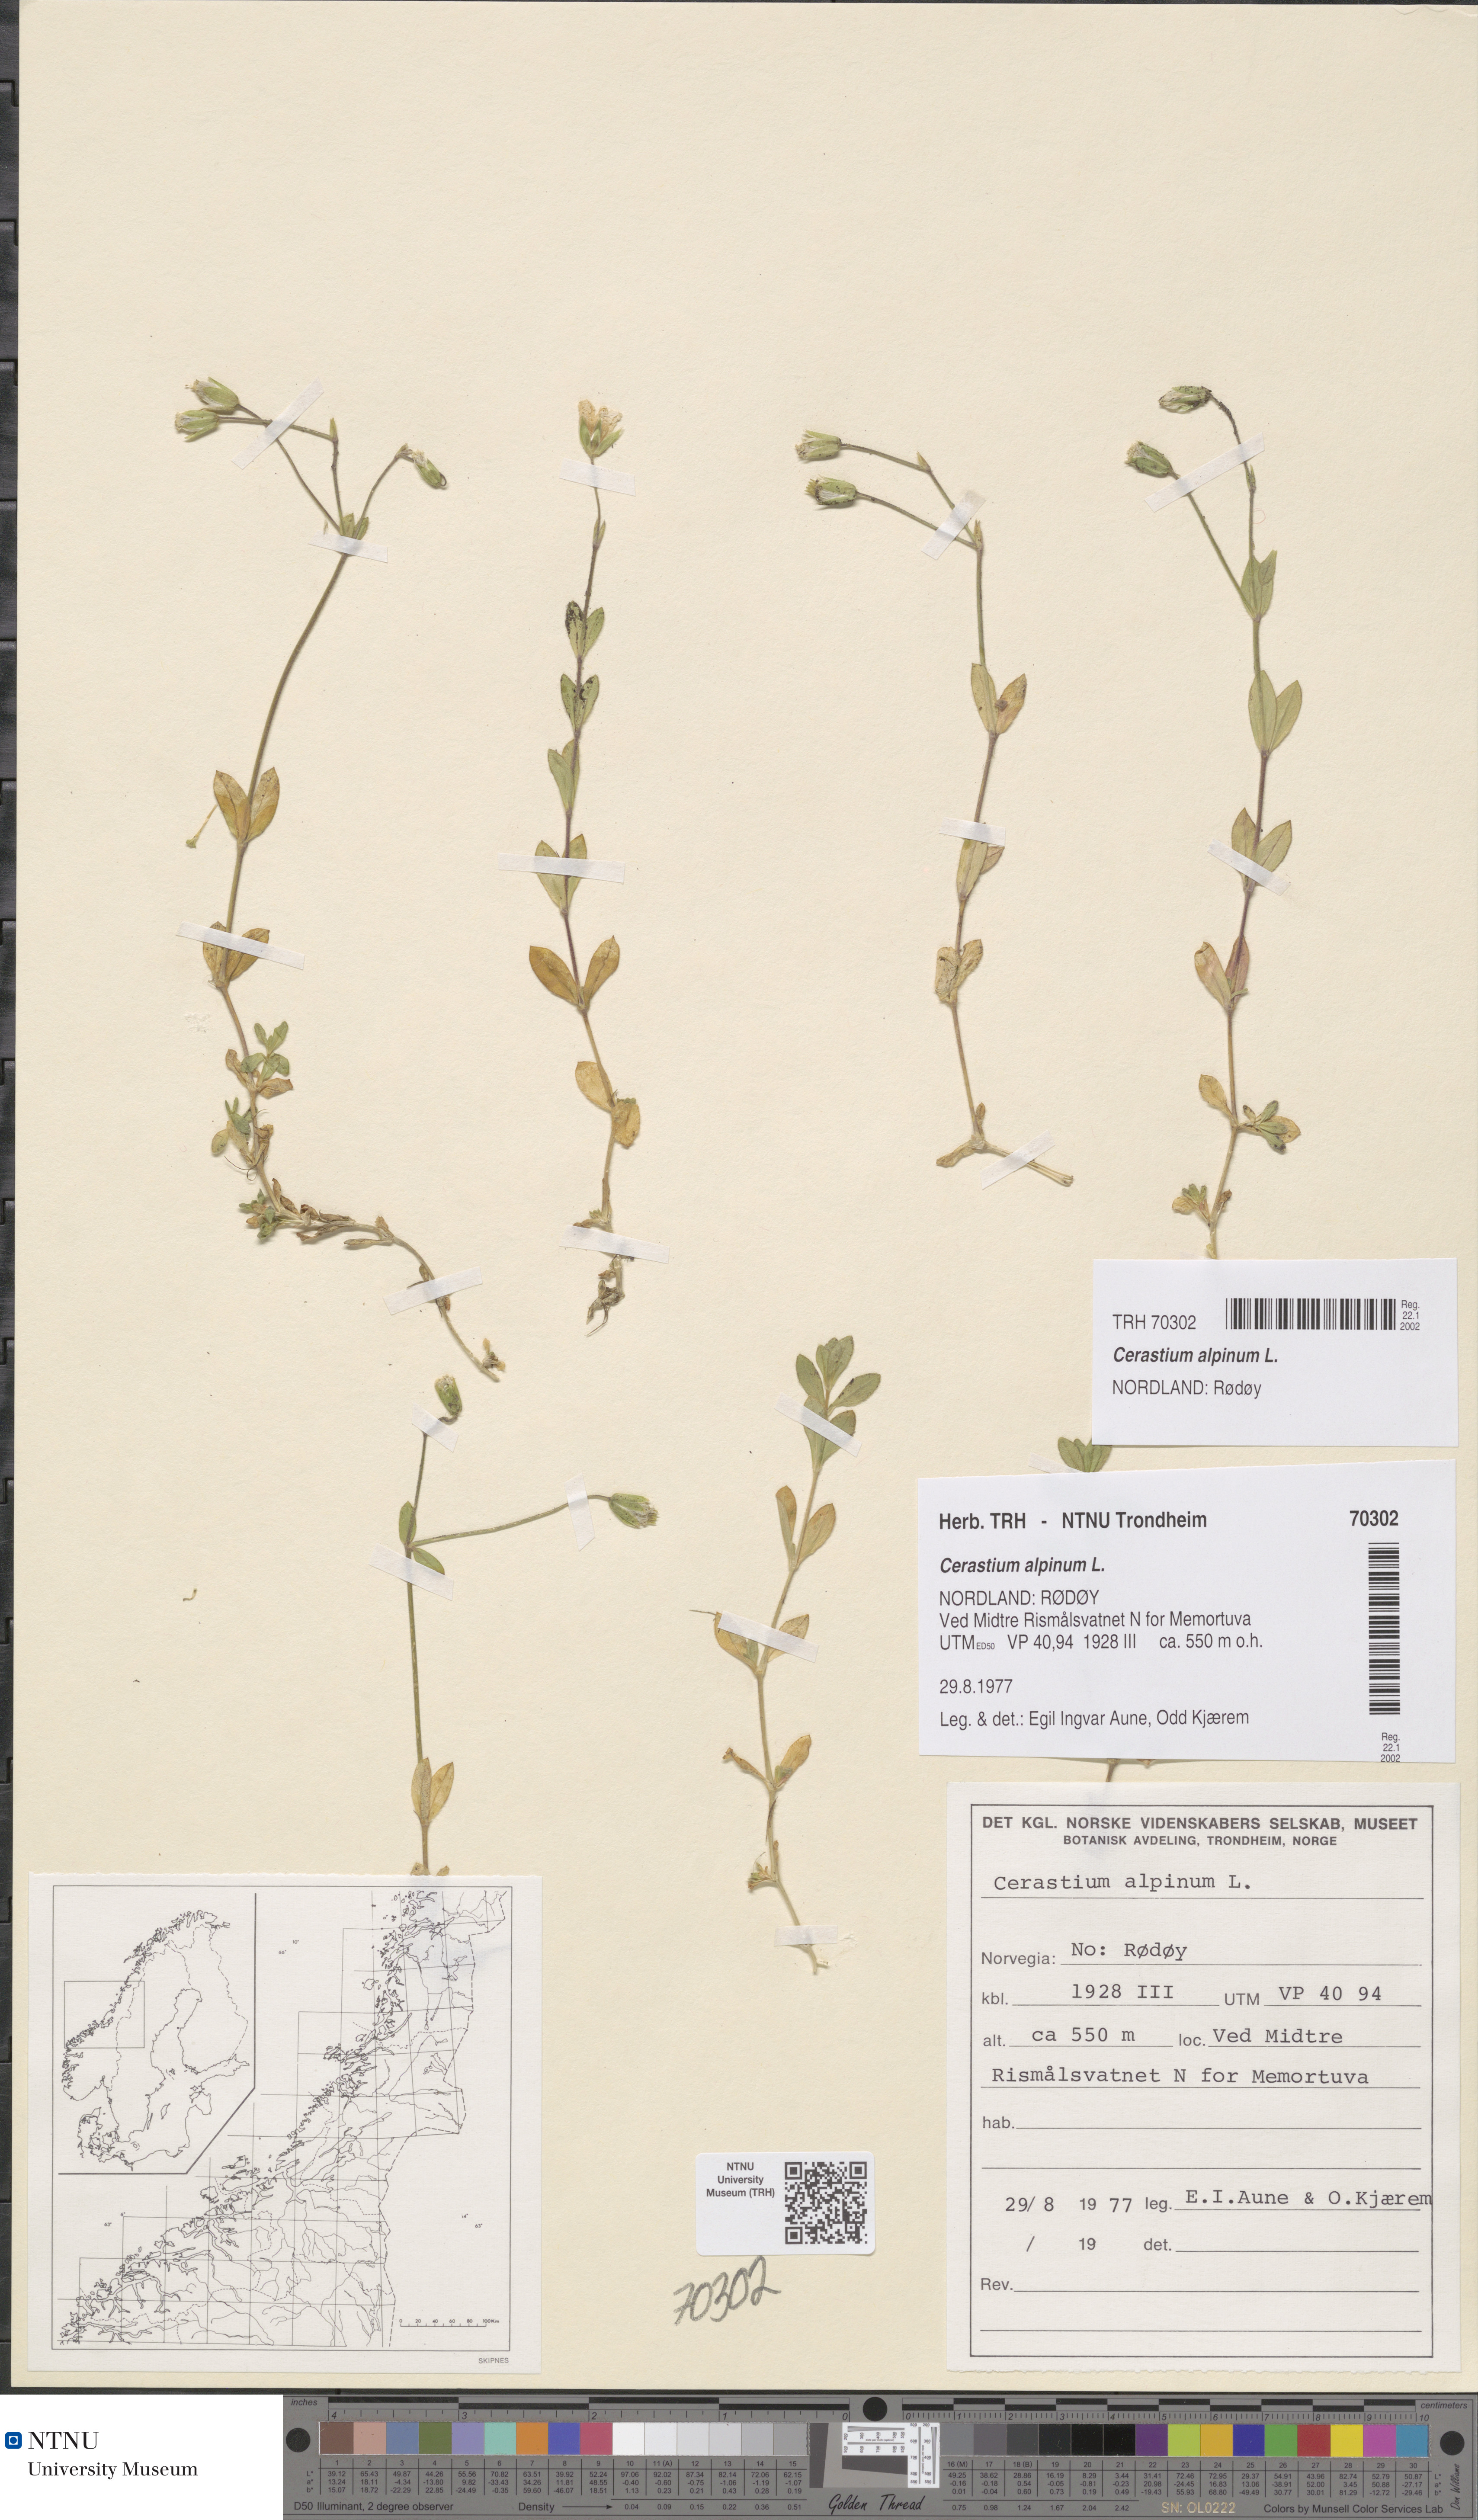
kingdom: Plantae
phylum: Tracheophyta
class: Magnoliopsida
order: Caryophyllales
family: Caryophyllaceae
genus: Cerastium
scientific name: Cerastium alpinum
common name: Alpine mouse-ear
